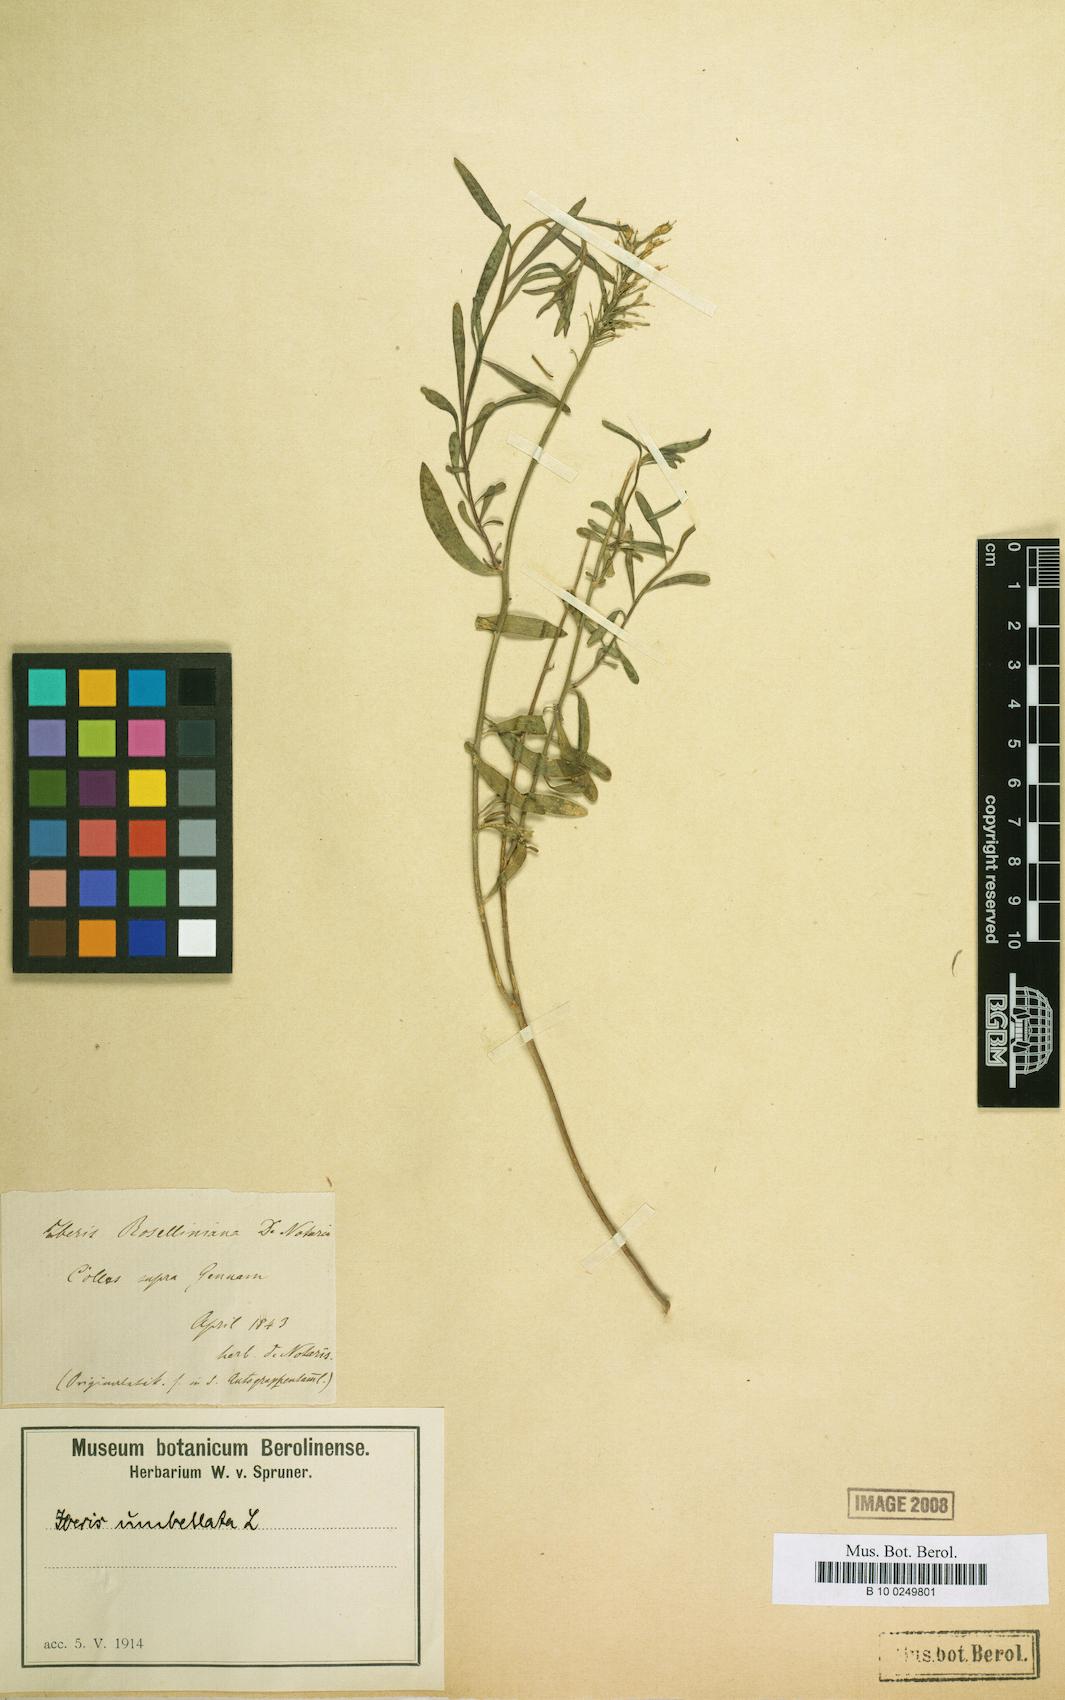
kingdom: Plantae
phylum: Tracheophyta
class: Magnoliopsida
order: Brassicales
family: Brassicaceae
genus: Iberis
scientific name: Iberis umbellata
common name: Globe candytuft
